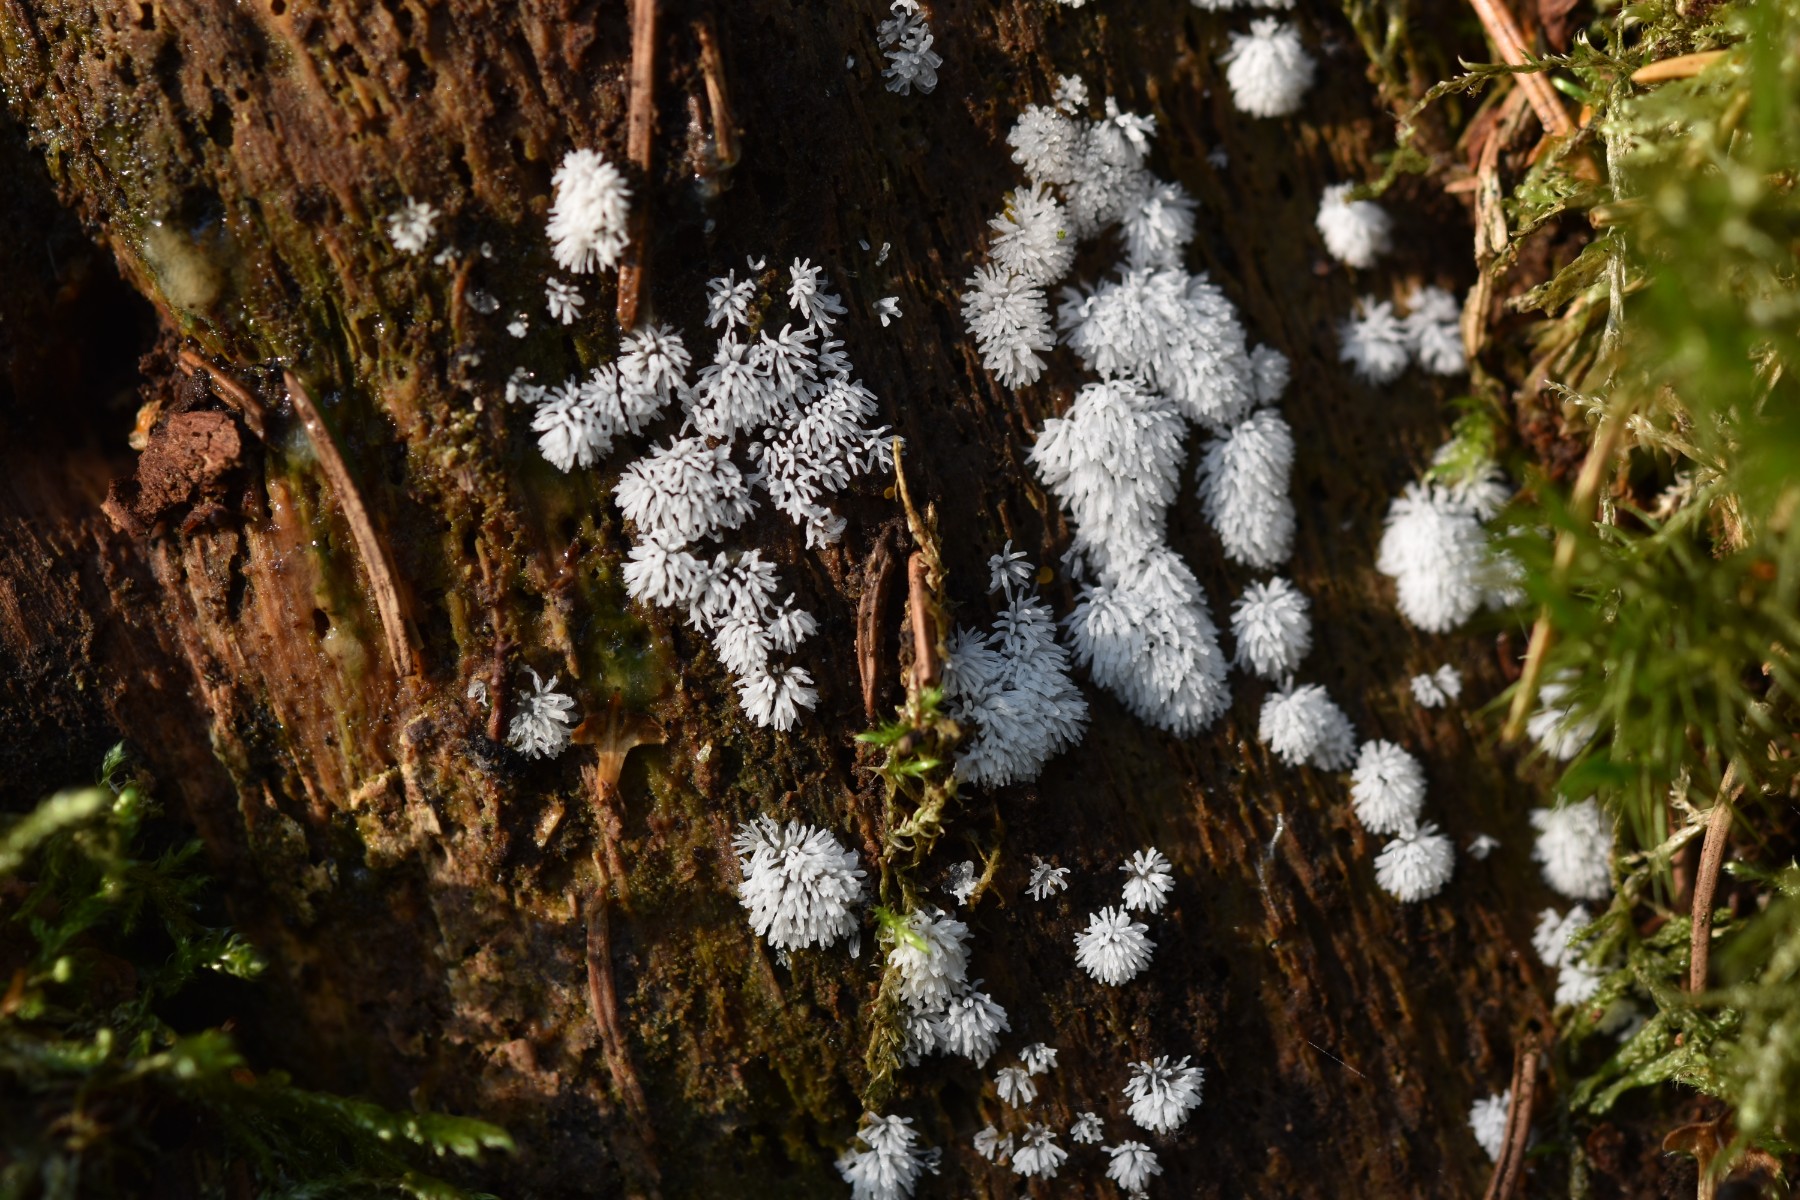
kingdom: Protozoa
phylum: Mycetozoa
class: Protosteliomycetes
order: Ceratiomyxales
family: Ceratiomyxaceae
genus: Ceratiomyxa
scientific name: Ceratiomyxa fruticulosa
